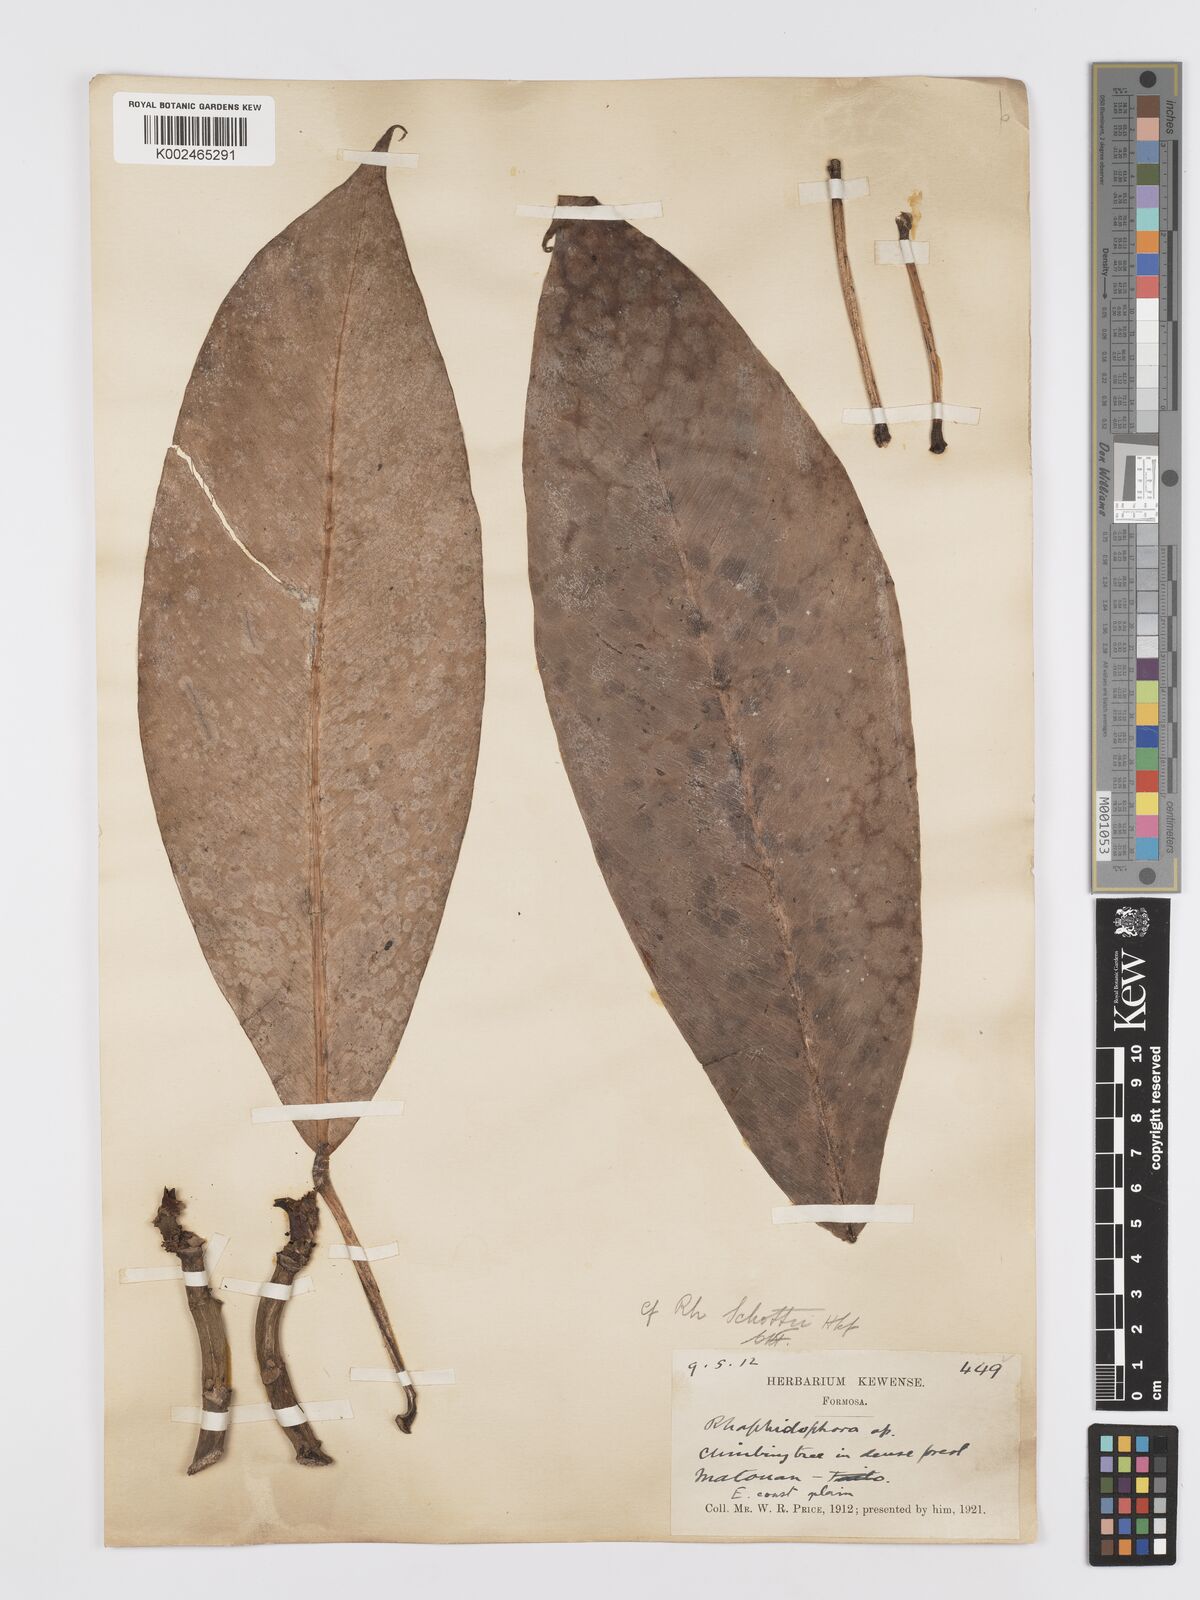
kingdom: Plantae
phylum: Tracheophyta
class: Liliopsida
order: Alismatales
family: Araceae
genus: Rhaphidophora
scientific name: Rhaphidophora perkinsiae
